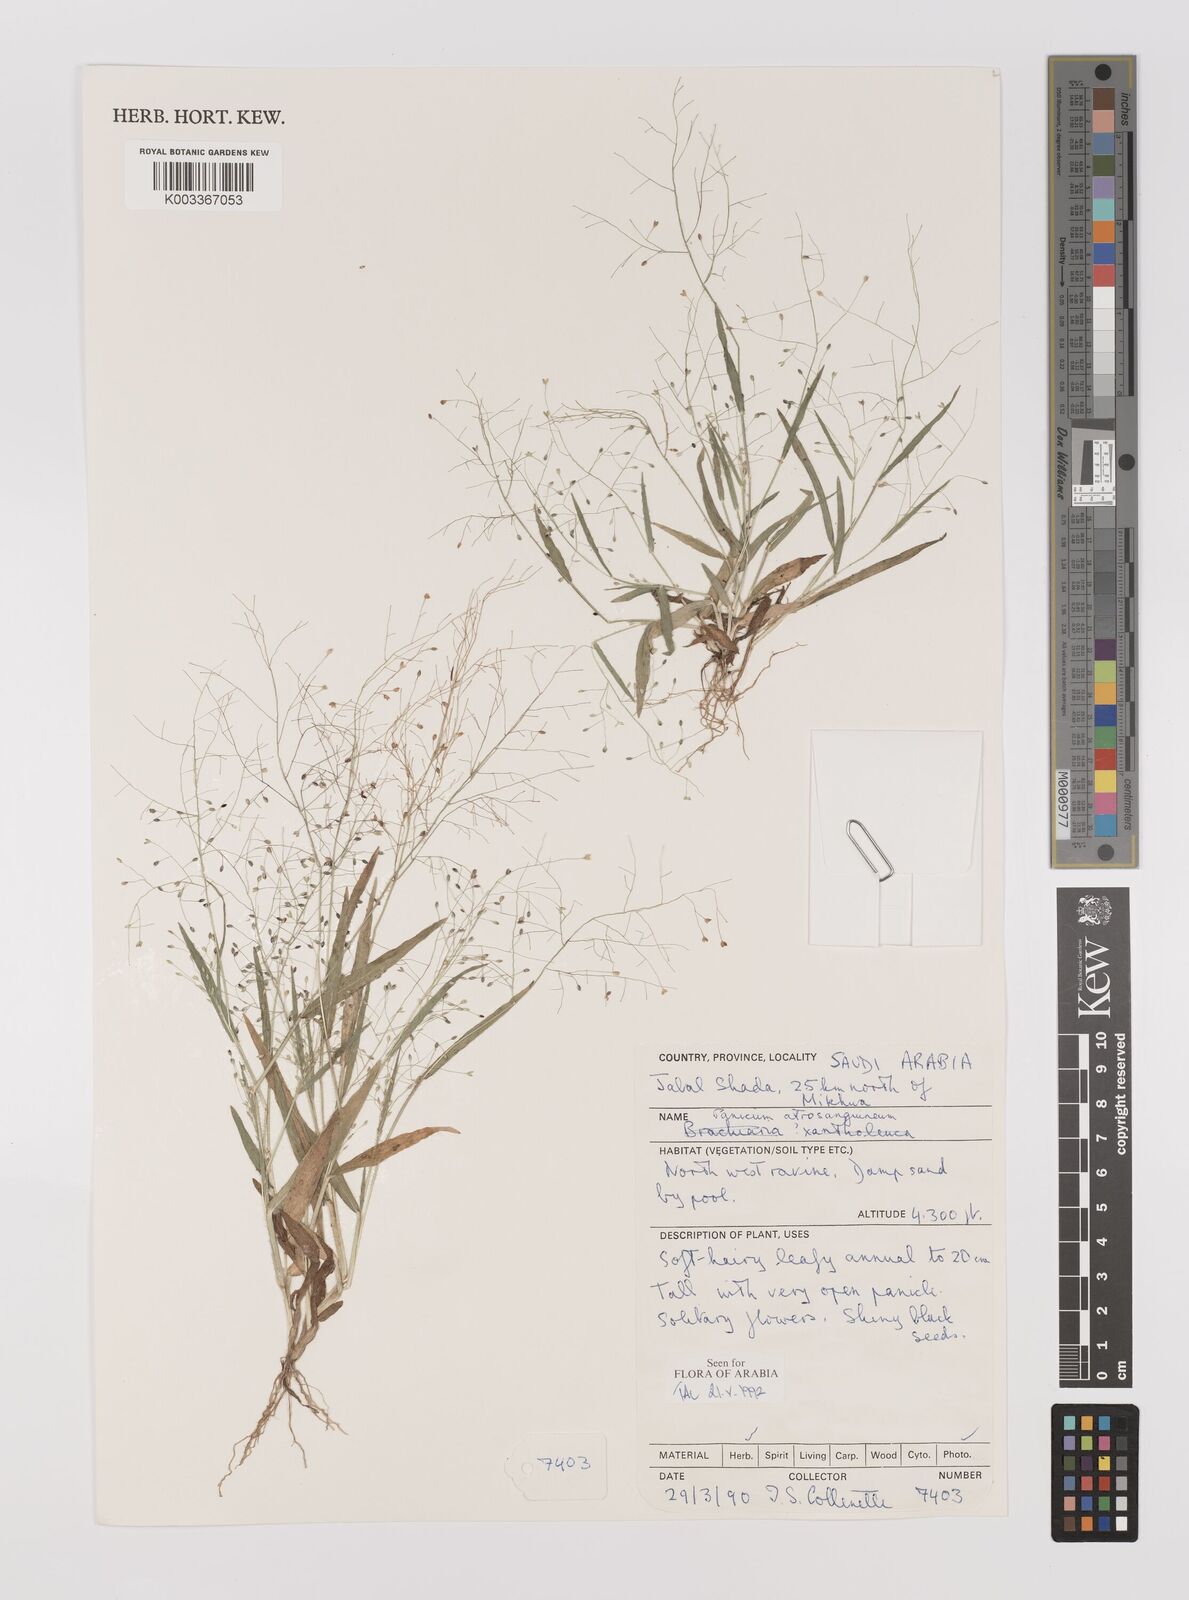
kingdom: Plantae
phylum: Tracheophyta
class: Liliopsida
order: Poales
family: Poaceae
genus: Panicum
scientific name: Panicum atrosanguineum
